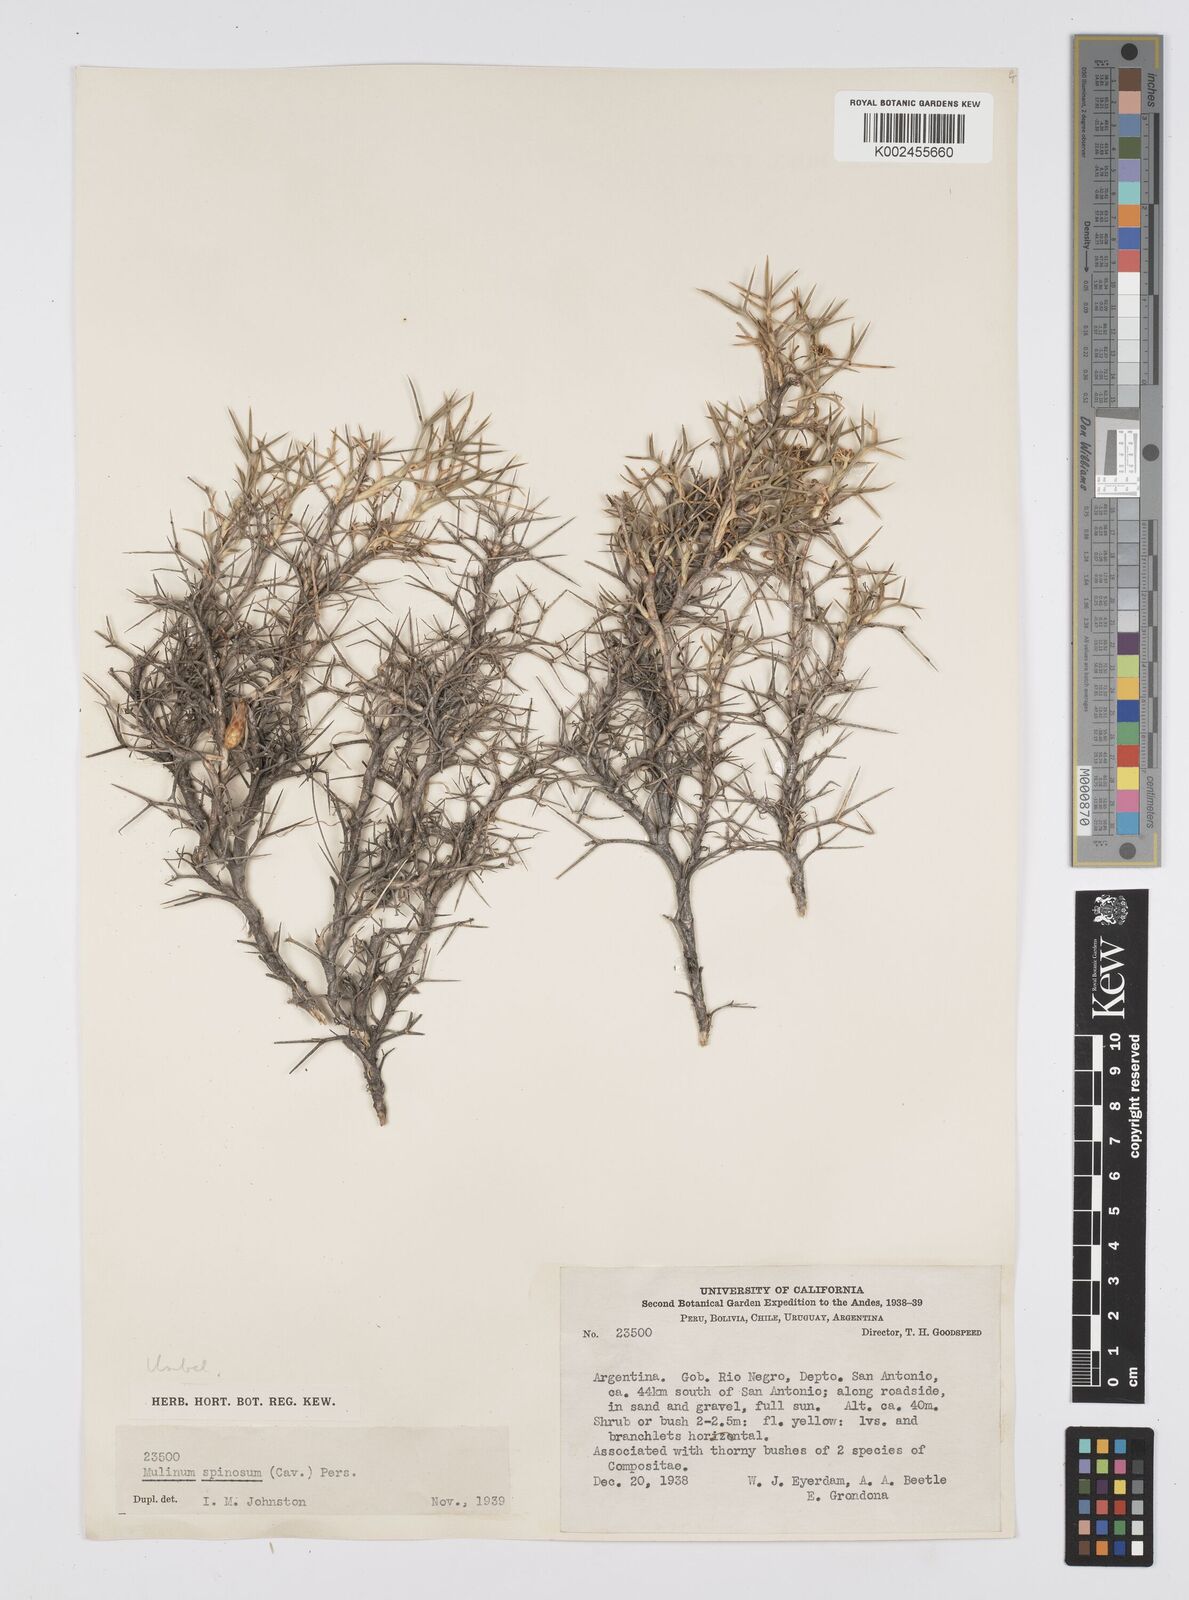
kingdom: Plantae
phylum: Tracheophyta
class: Magnoliopsida
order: Apiales
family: Apiaceae
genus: Azorella
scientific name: Azorella prolifera
